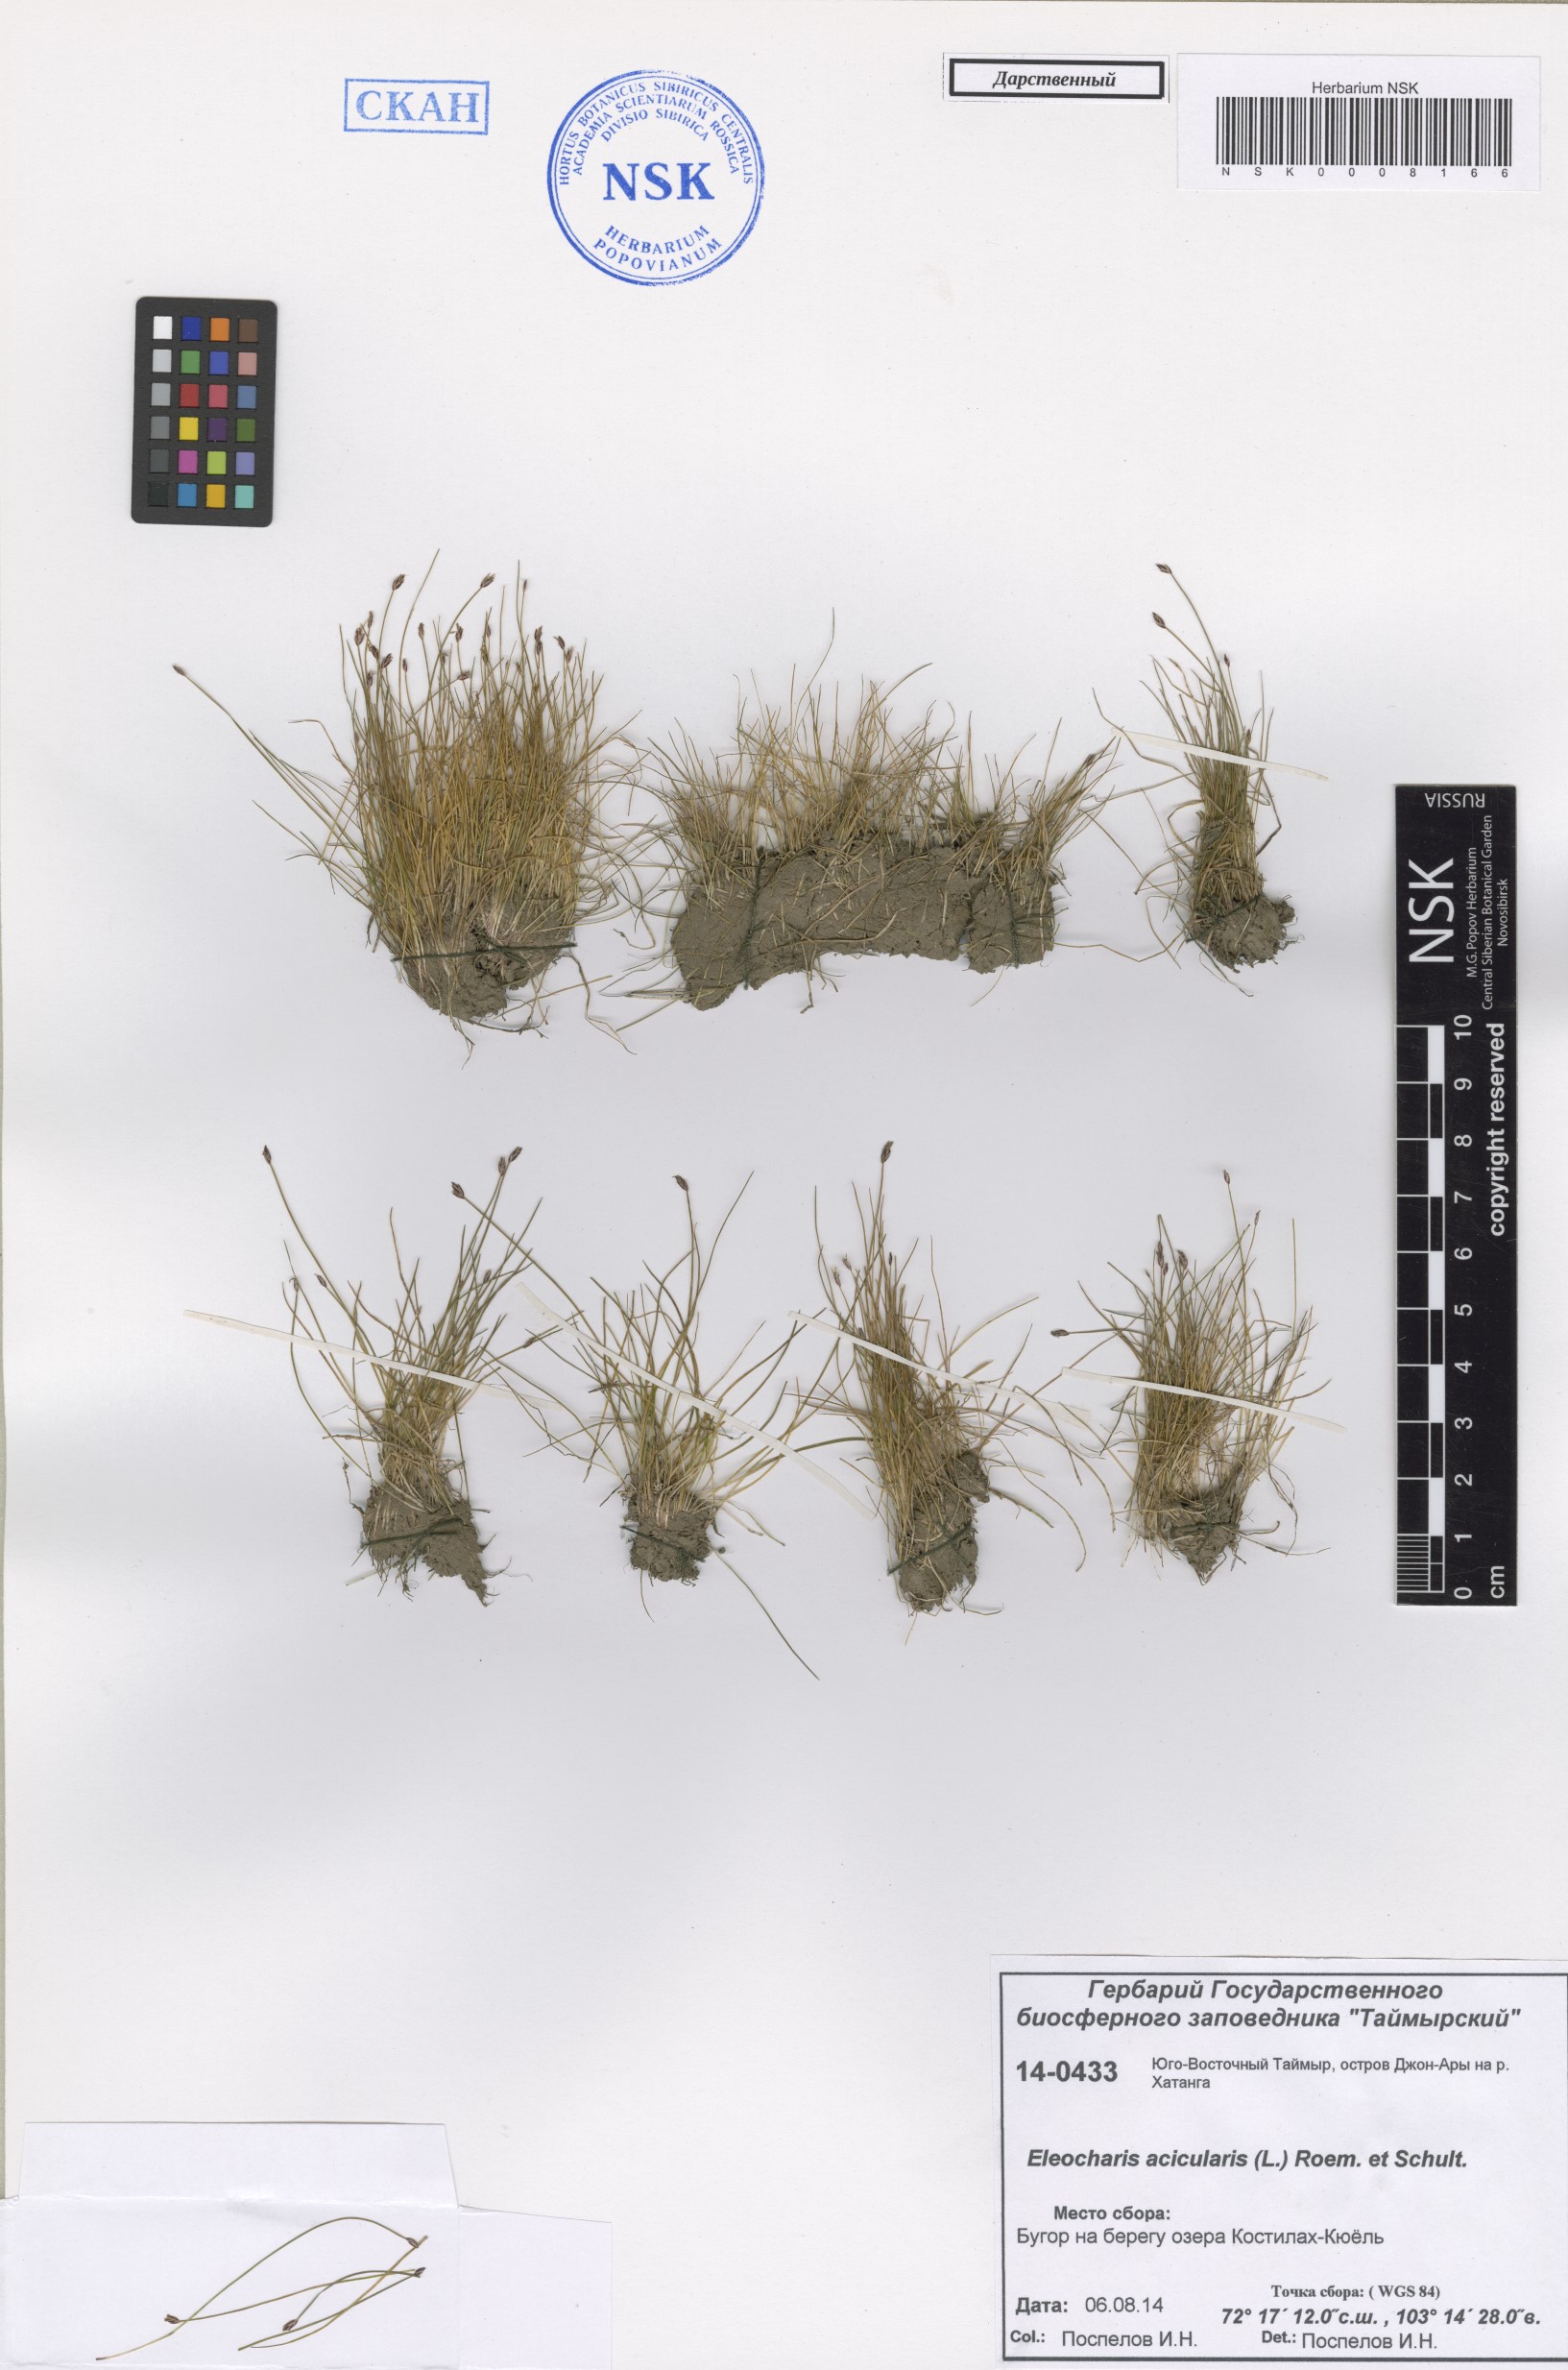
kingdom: Plantae
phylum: Tracheophyta
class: Liliopsida
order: Poales
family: Cyperaceae
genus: Eleocharis
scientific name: Eleocharis acicularis
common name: Needle spike-rush
